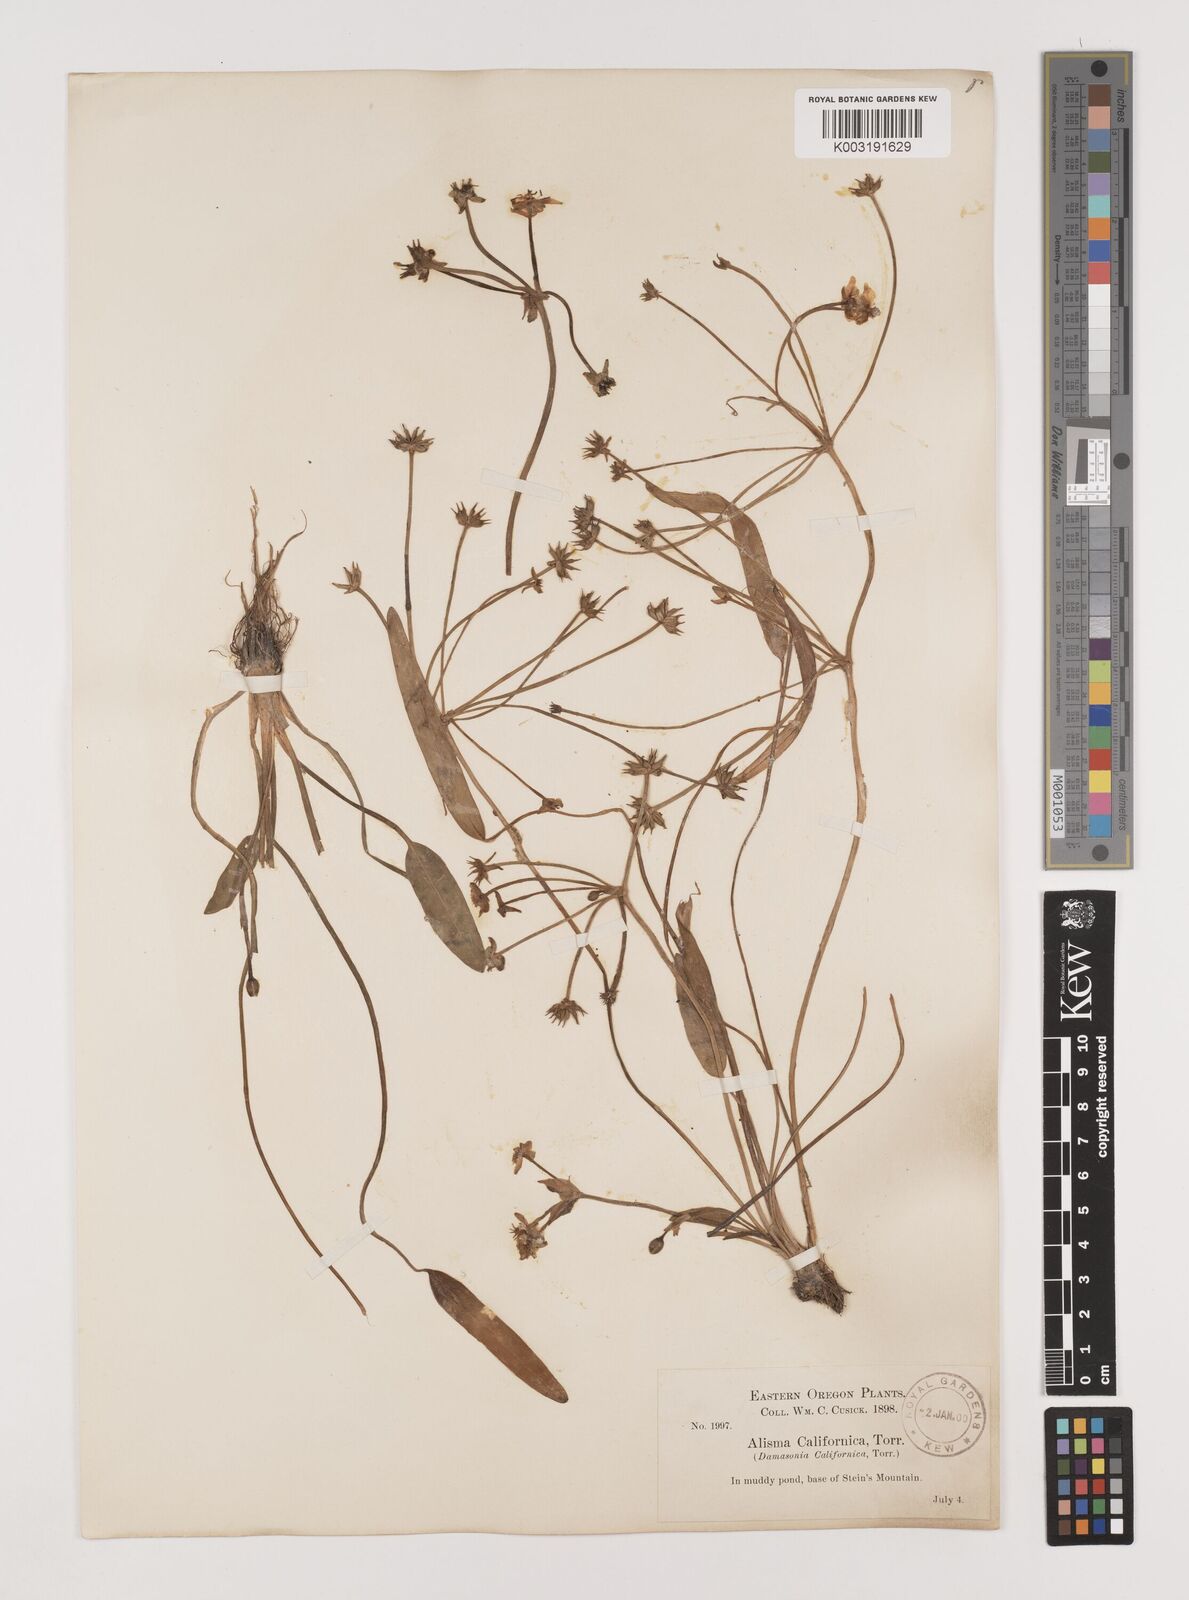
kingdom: Plantae
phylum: Tracheophyta
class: Liliopsida
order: Alismatales
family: Alismataceae
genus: Damasonium
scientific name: Damasonium
